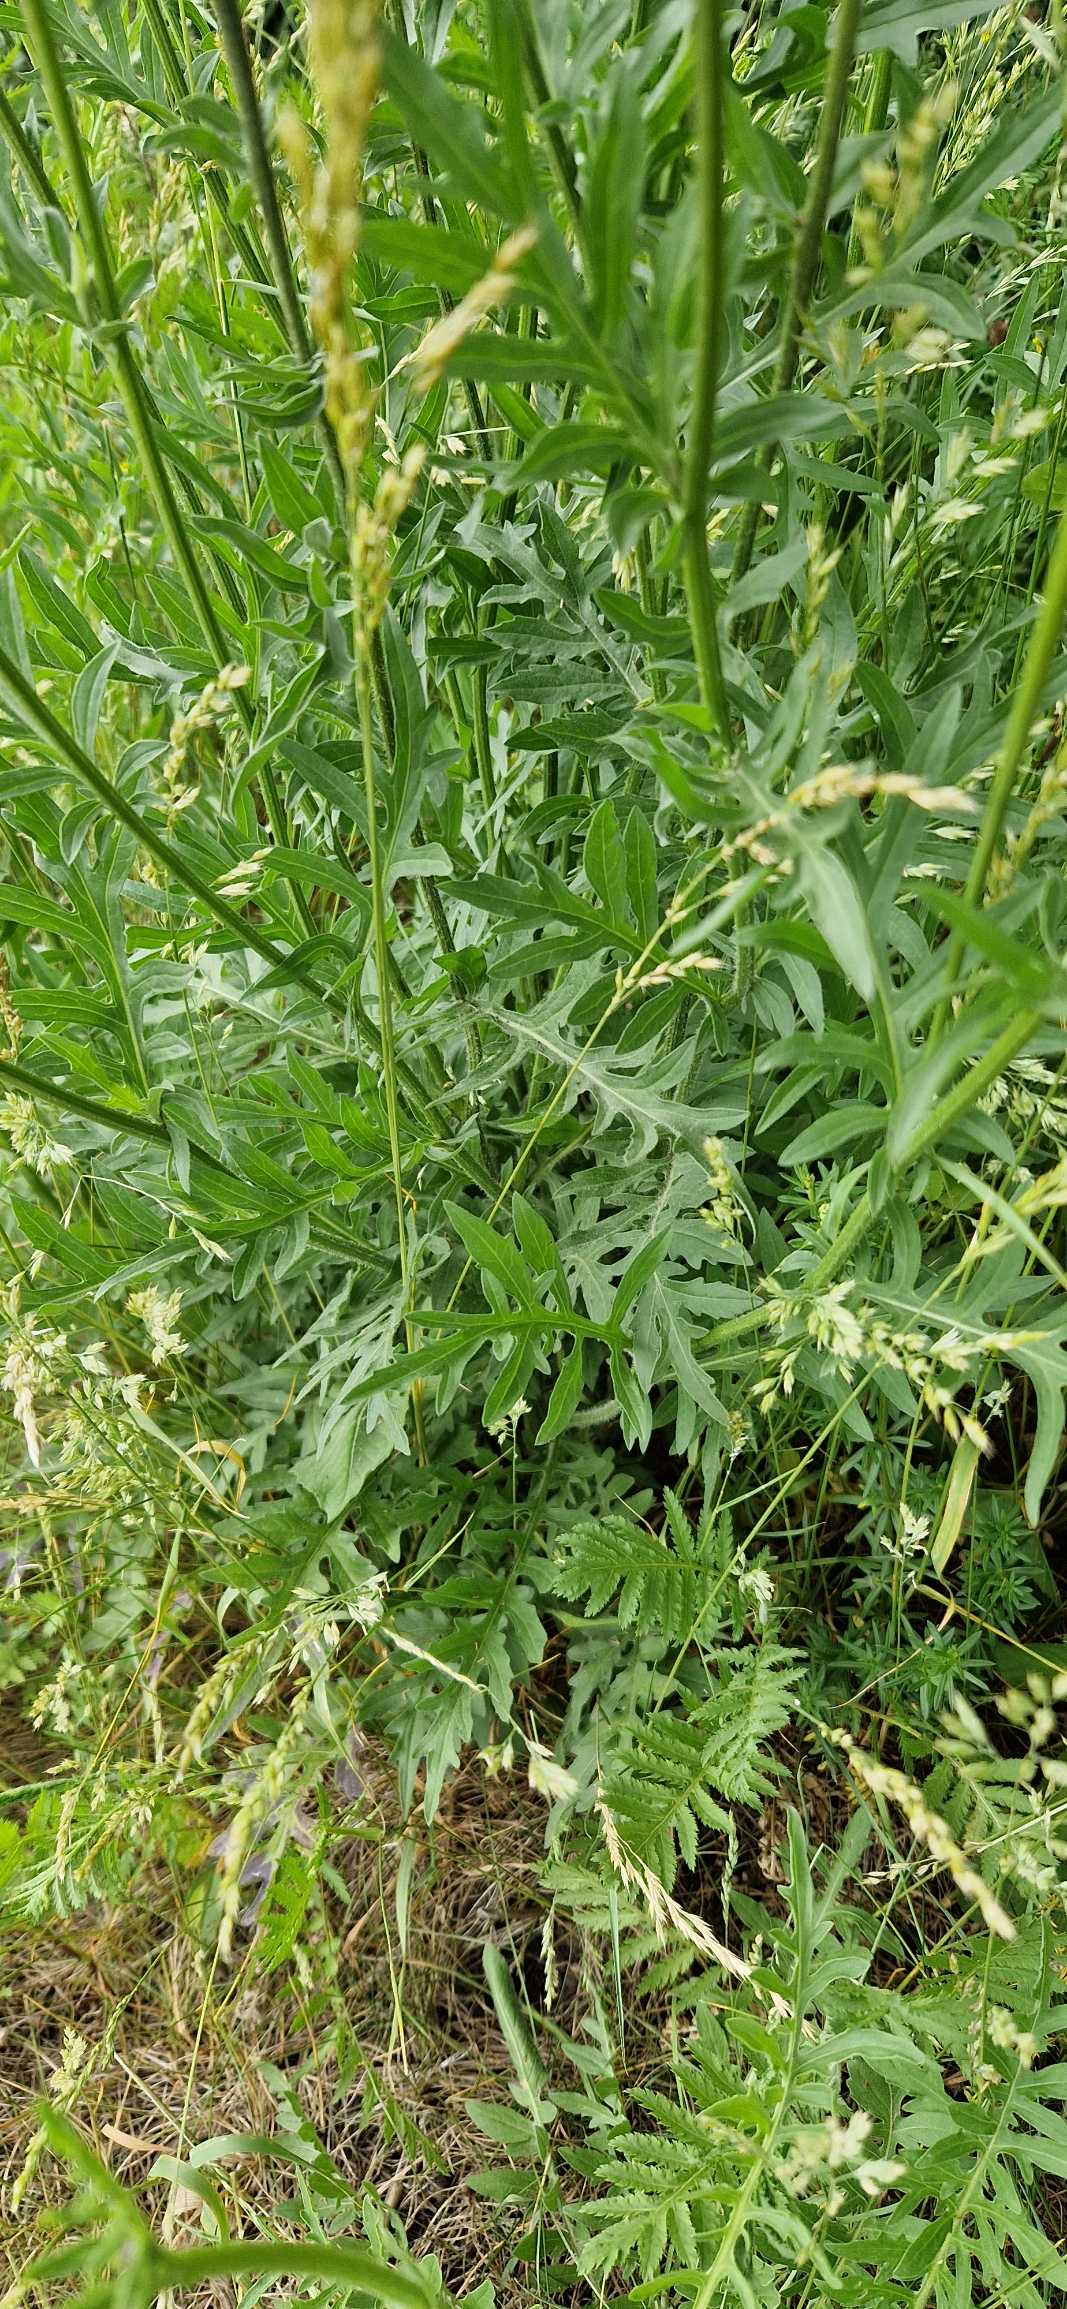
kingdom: Plantae
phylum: Tracheophyta
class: Magnoliopsida
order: Asterales
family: Asteraceae
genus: Centaurea
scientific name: Centaurea scabiosa
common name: Stor knopurt
